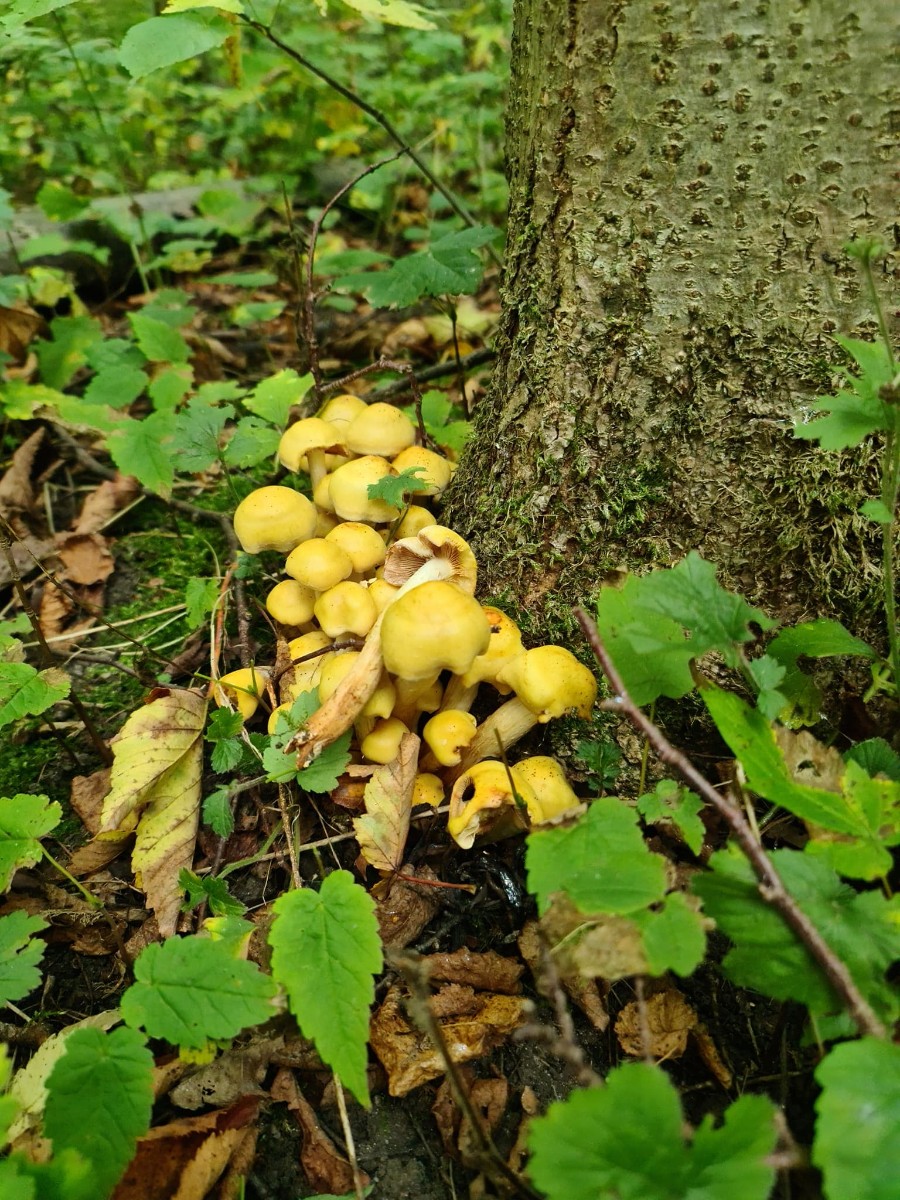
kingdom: Fungi
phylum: Basidiomycota
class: Agaricomycetes
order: Agaricales
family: Hymenogastraceae
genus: Flammula
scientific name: Flammula alnicola
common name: elle-skælhat
